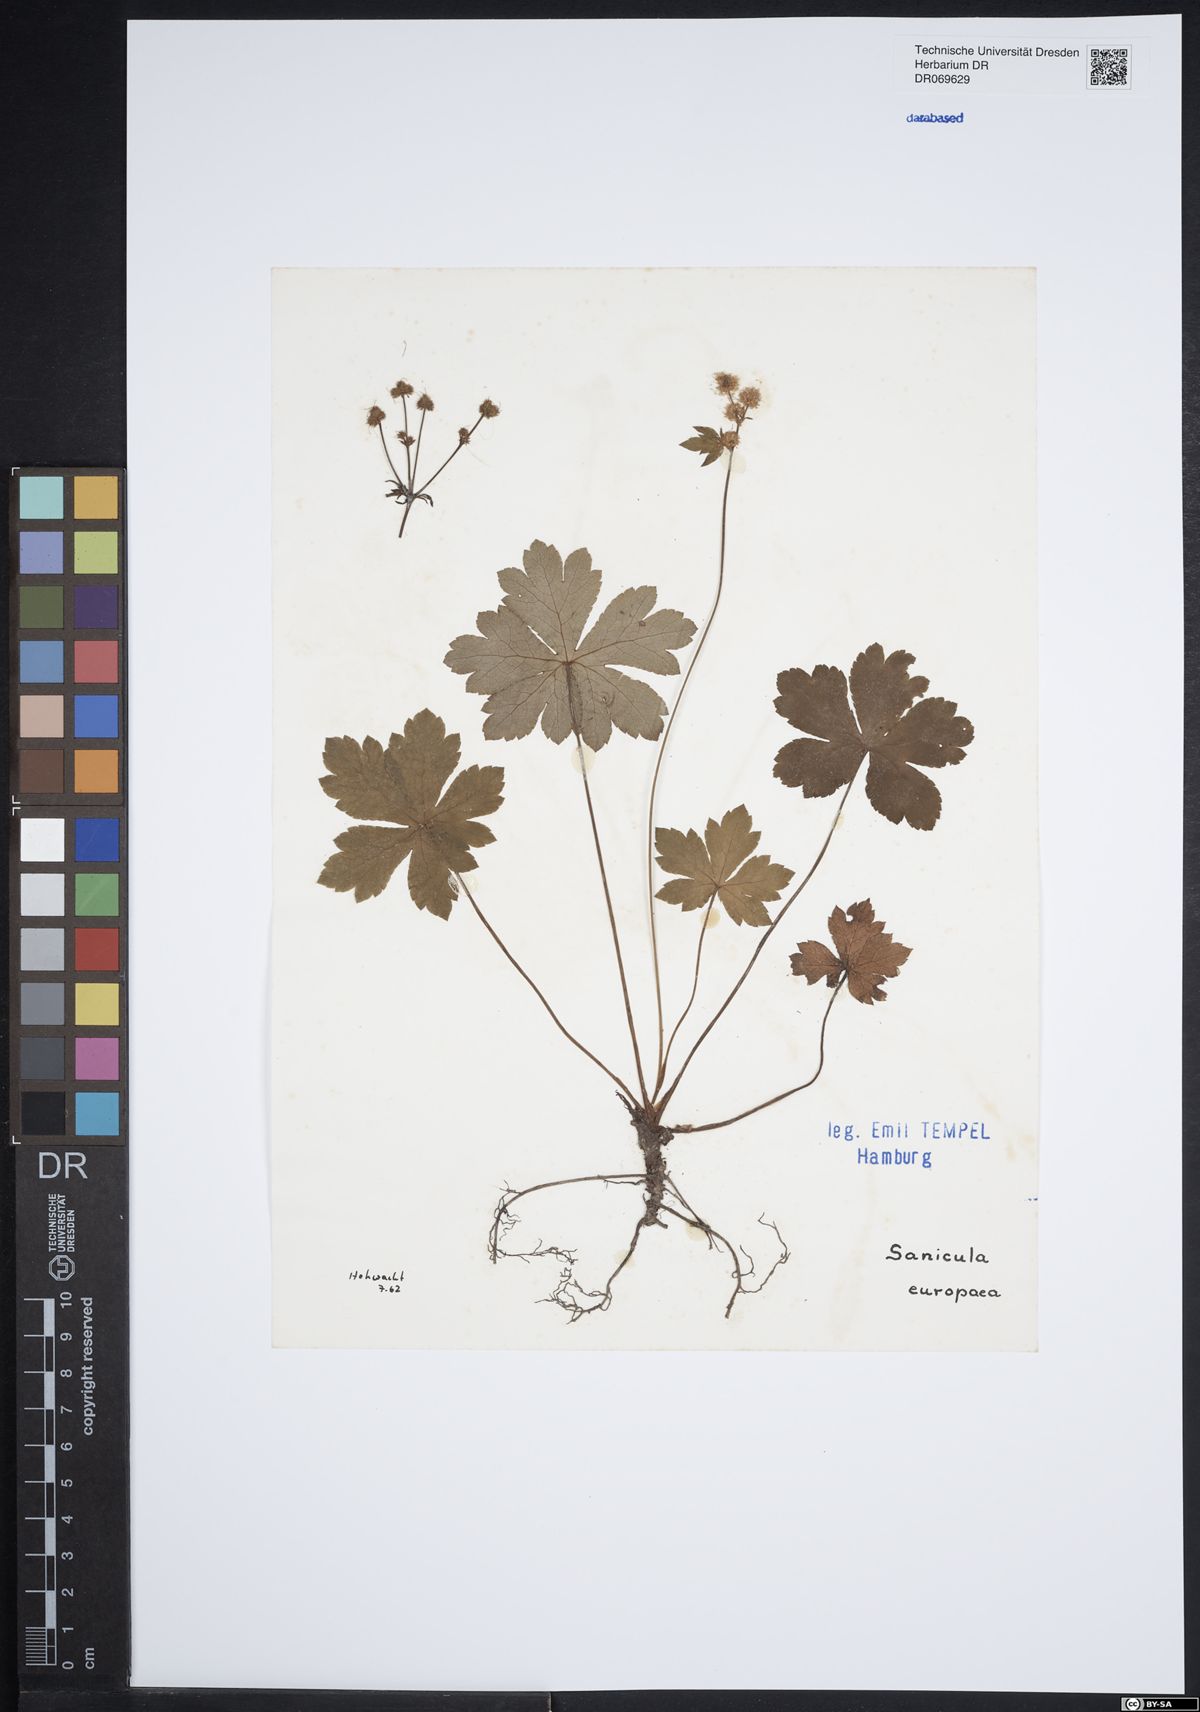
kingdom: Plantae
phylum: Tracheophyta
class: Magnoliopsida
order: Apiales
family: Apiaceae
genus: Sanicula
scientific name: Sanicula europaea
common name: Sanicle
